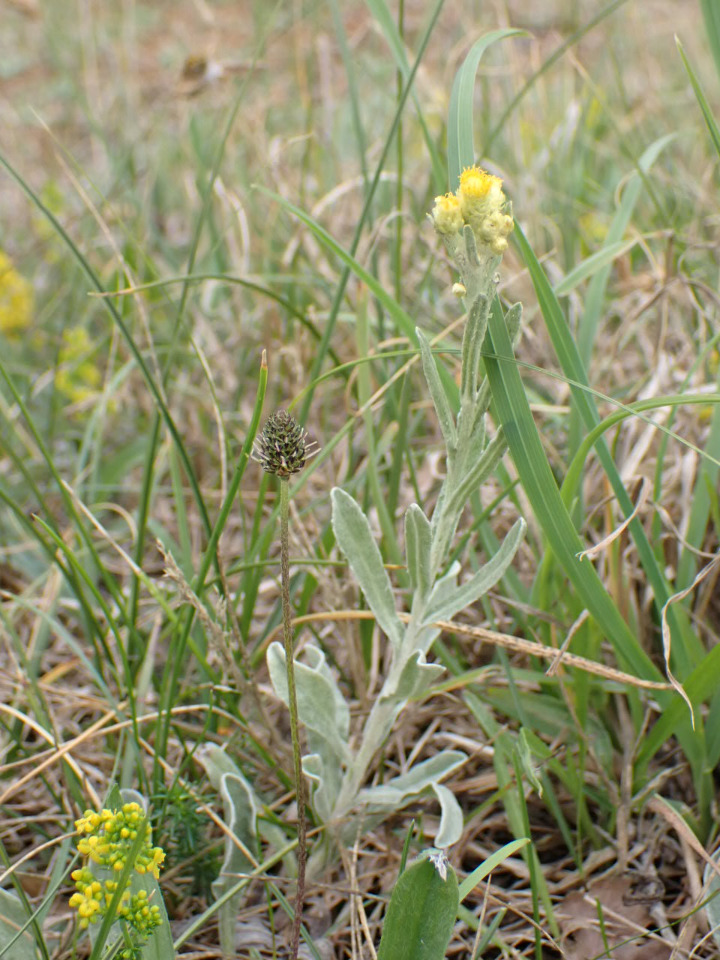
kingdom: Plantae
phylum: Tracheophyta
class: Magnoliopsida
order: Asterales
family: Asteraceae
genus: Helichrysum
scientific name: Helichrysum arenarium
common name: Gul evighedsblomst
